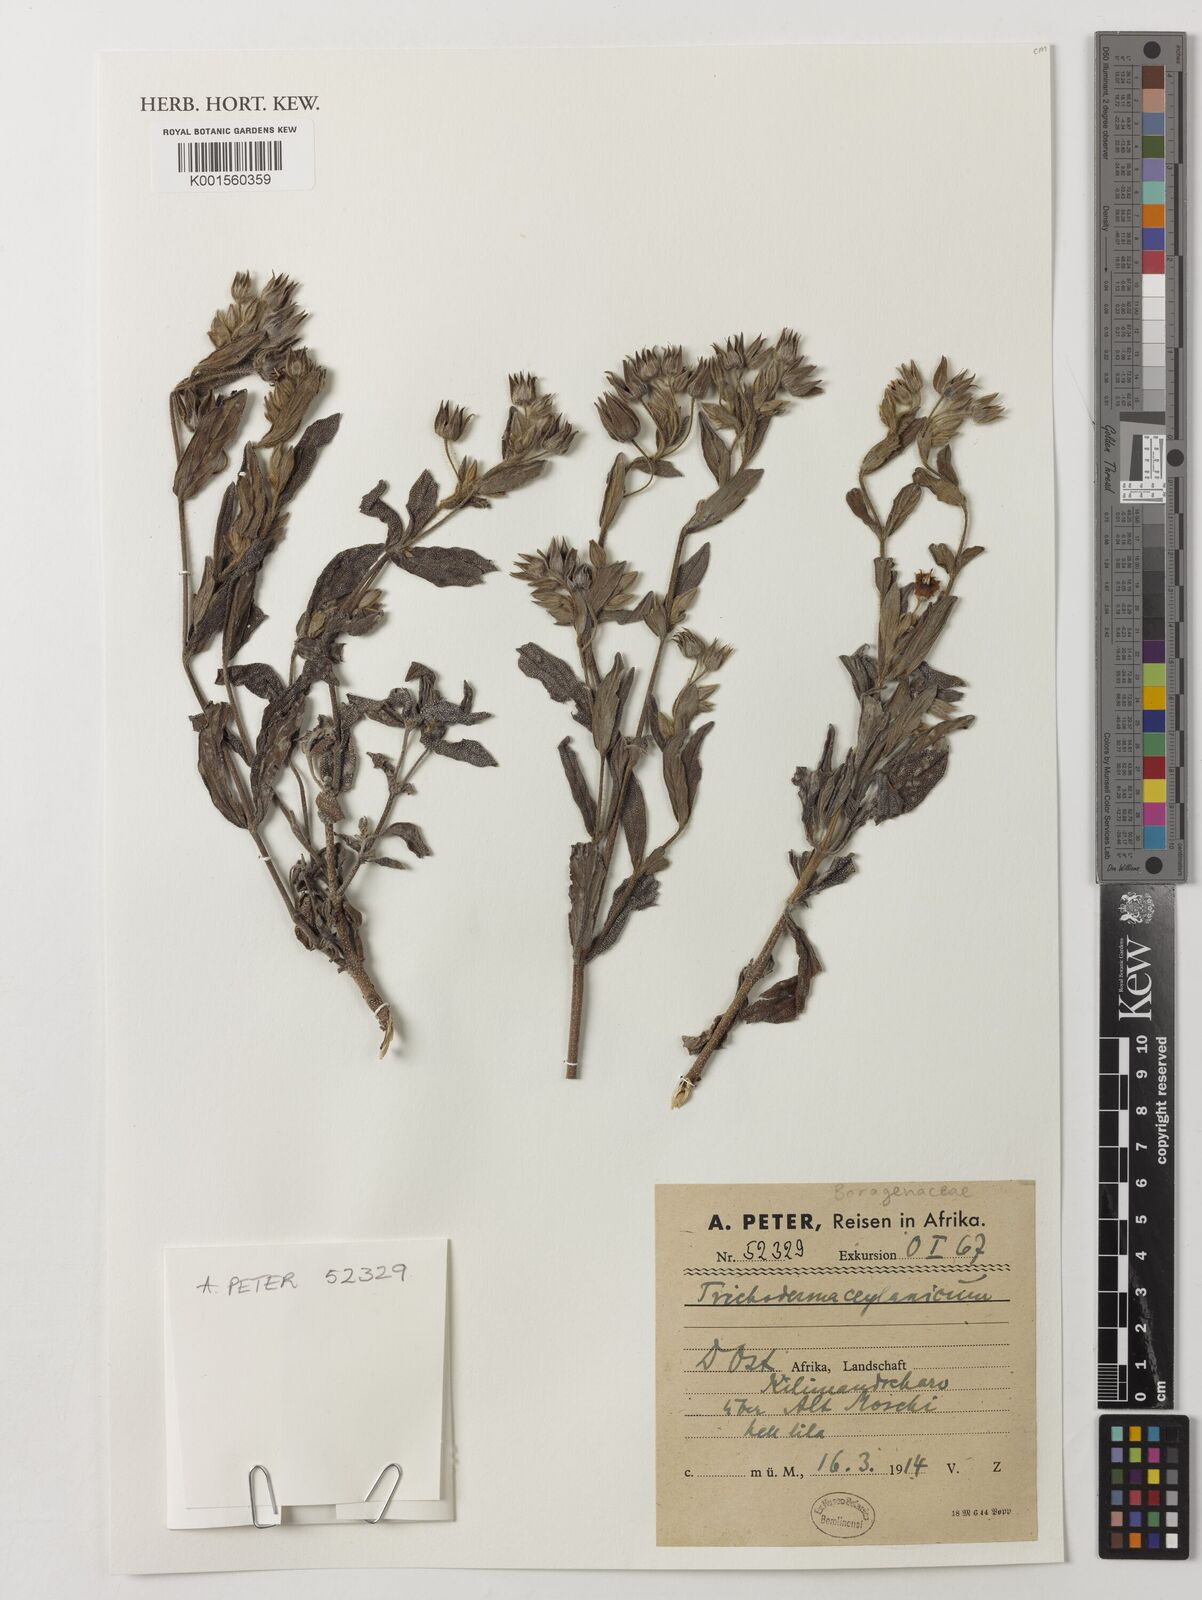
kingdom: Plantae
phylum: Tracheophyta
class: Magnoliopsida
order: Boraginales
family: Boraginaceae
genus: Trichodesma
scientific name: Trichodesma zeylanicum
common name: Camelbush
